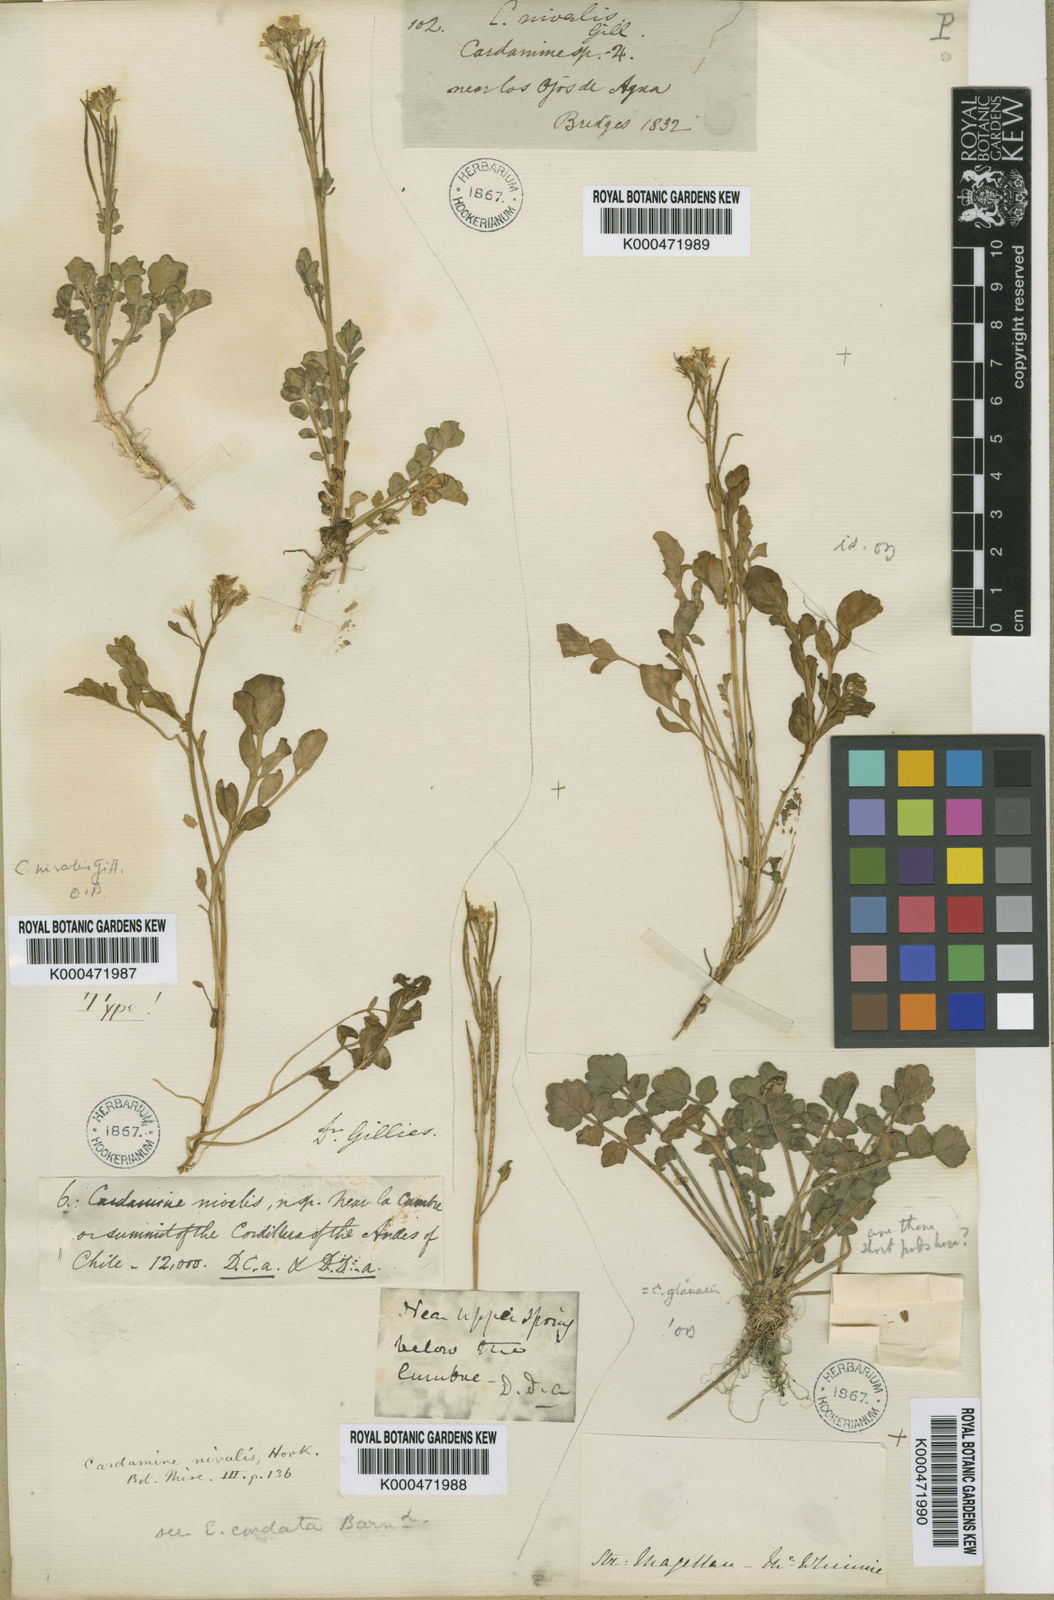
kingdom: Plantae
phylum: Tracheophyta
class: Magnoliopsida
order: Brassicales
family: Brassicaceae
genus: Cardamine
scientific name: Cardamine cordata
